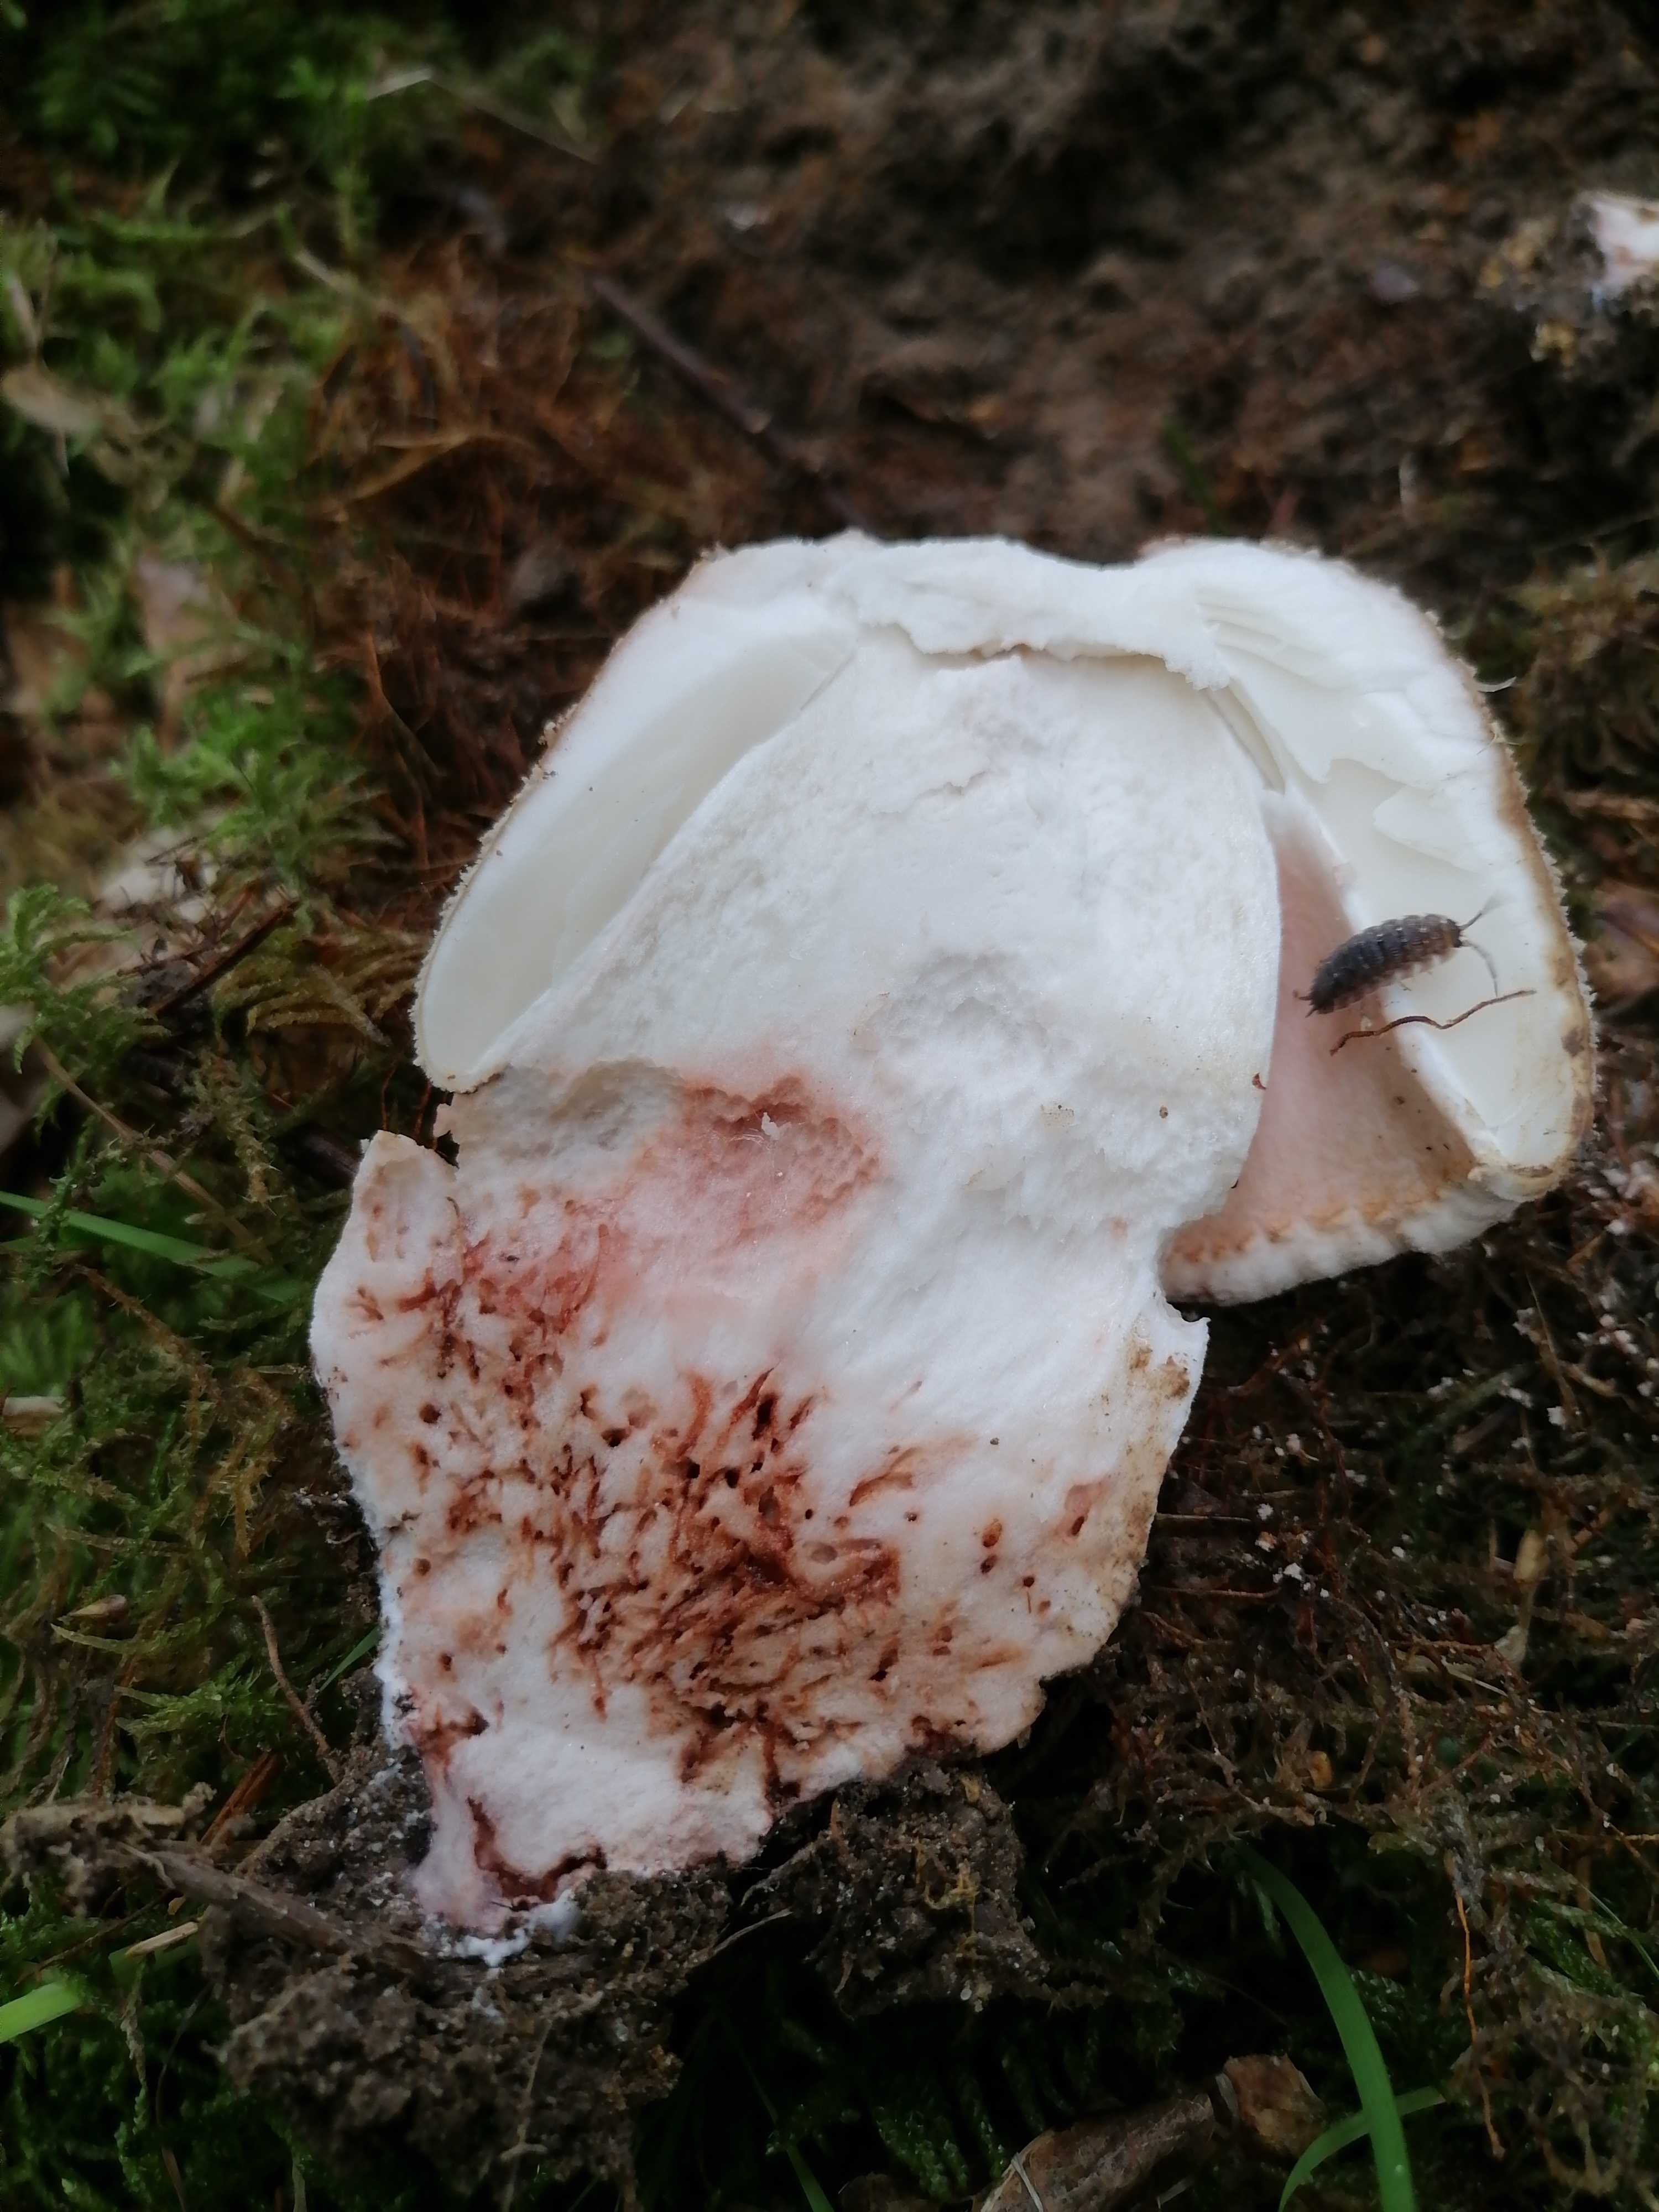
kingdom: Fungi
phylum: Basidiomycota
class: Agaricomycetes
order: Agaricales
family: Amanitaceae
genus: Amanita
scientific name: Amanita rubescens
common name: rødmende fluesvamp
